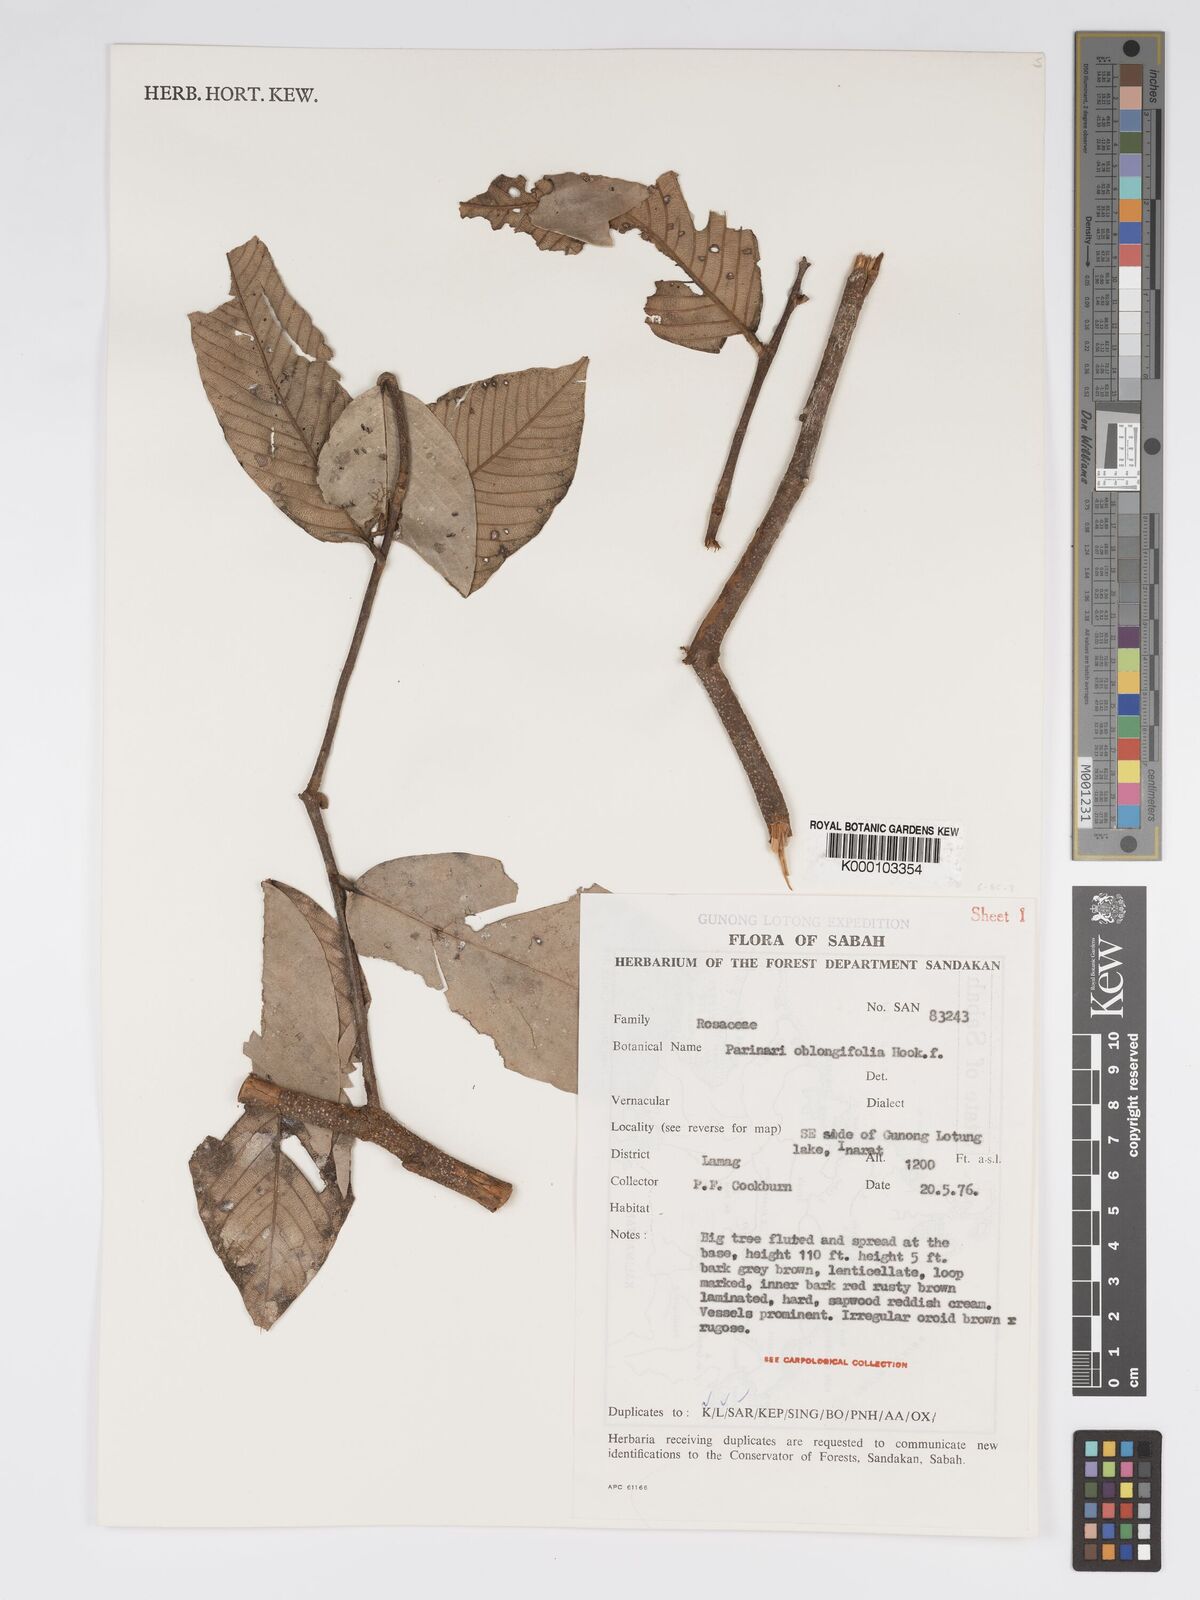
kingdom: Plantae
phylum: Tracheophyta
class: Magnoliopsida
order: Malpighiales
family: Chrysobalanaceae
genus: Parinari
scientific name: Parinari
